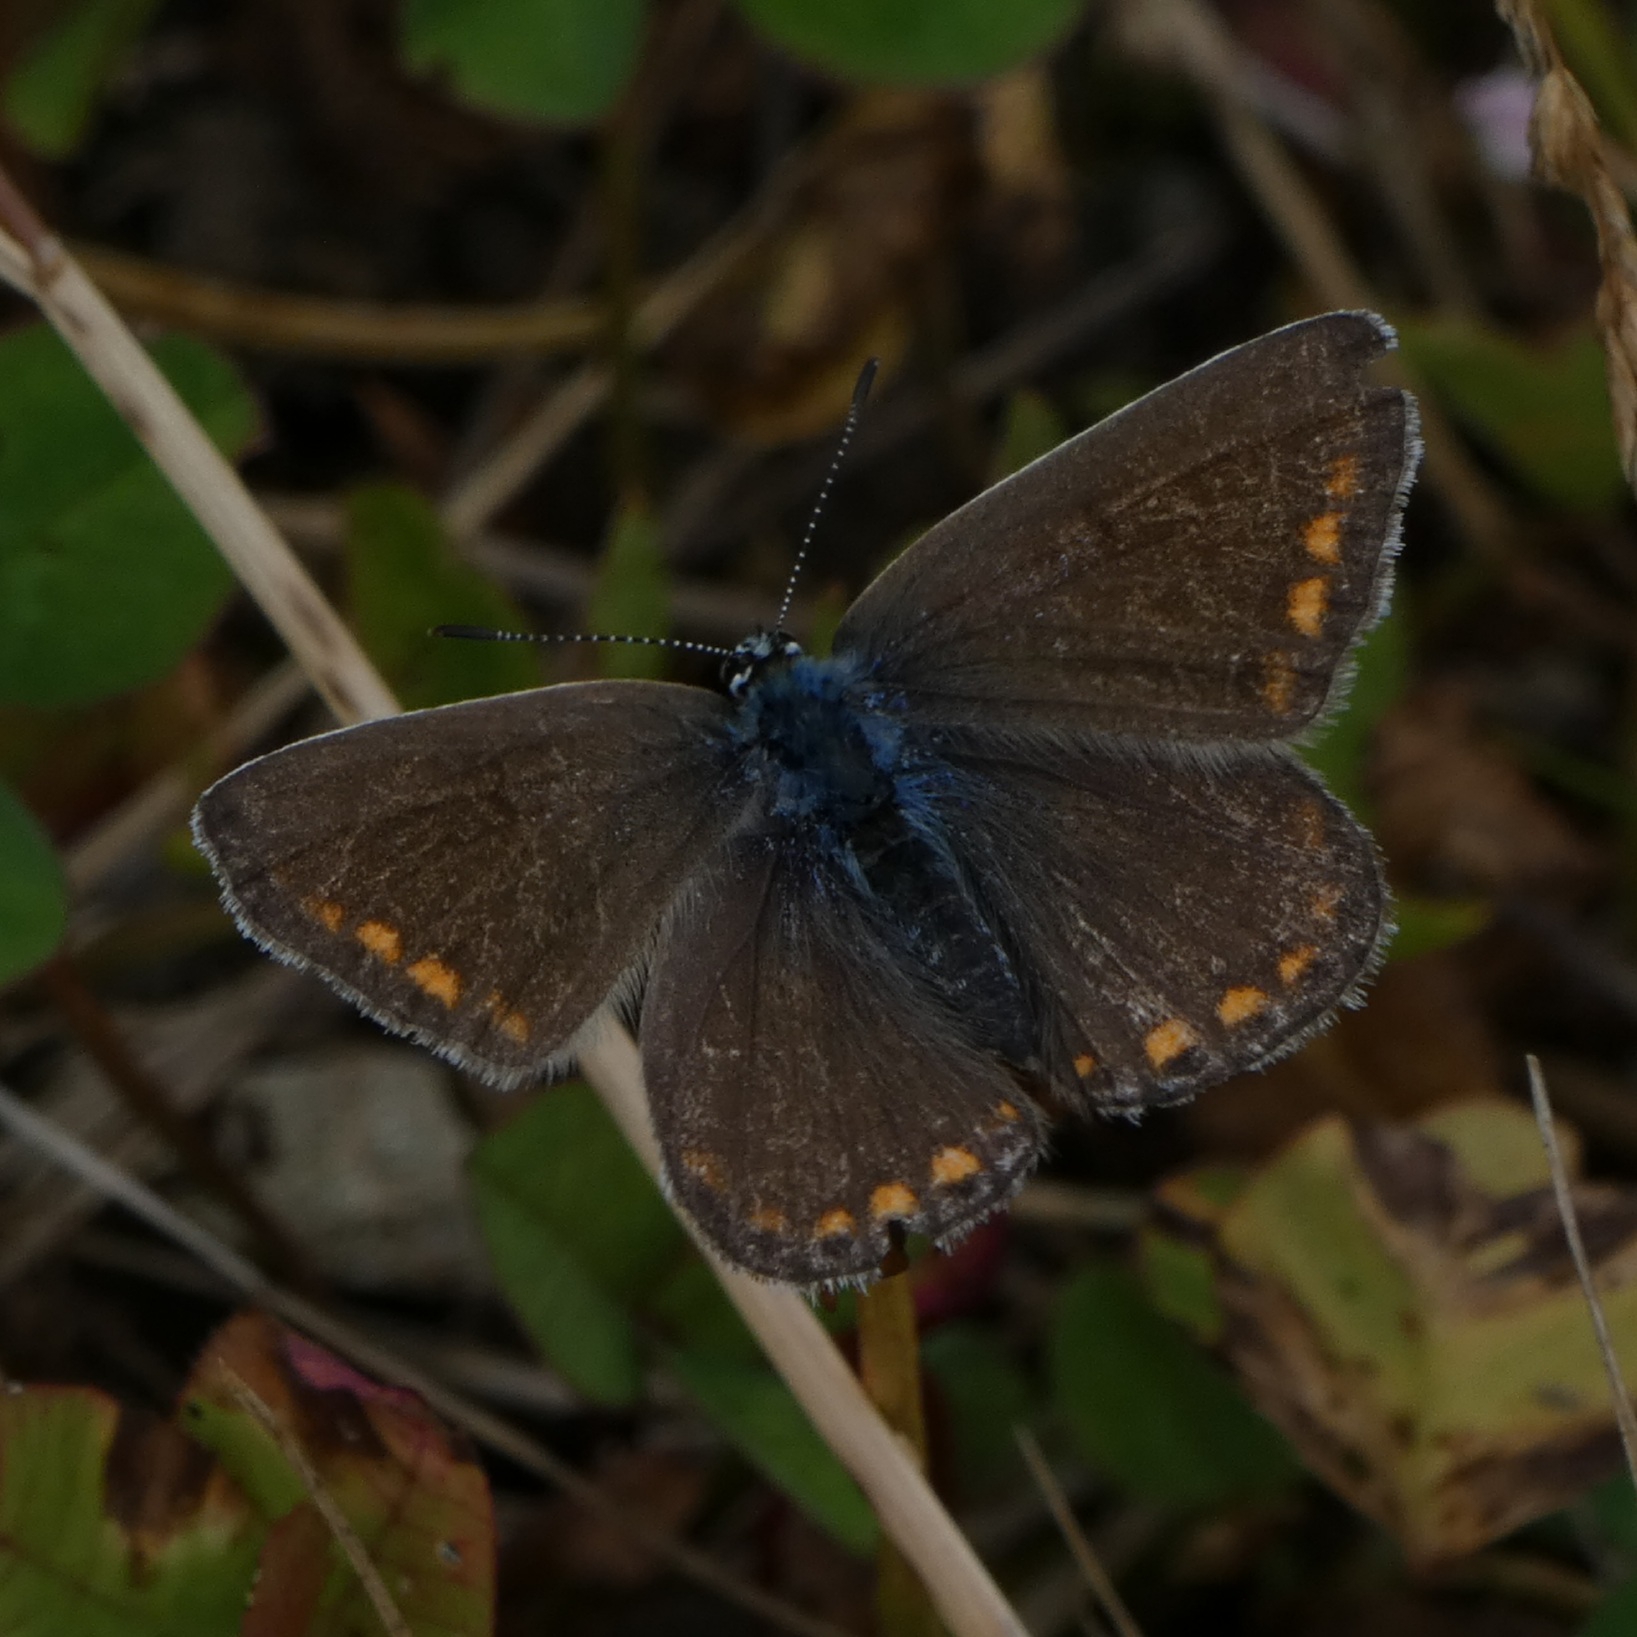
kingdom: Animalia
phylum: Arthropoda
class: Insecta
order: Lepidoptera
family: Lycaenidae
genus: Polyommatus
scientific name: Polyommatus icarus
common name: Almindelig blåfugl
